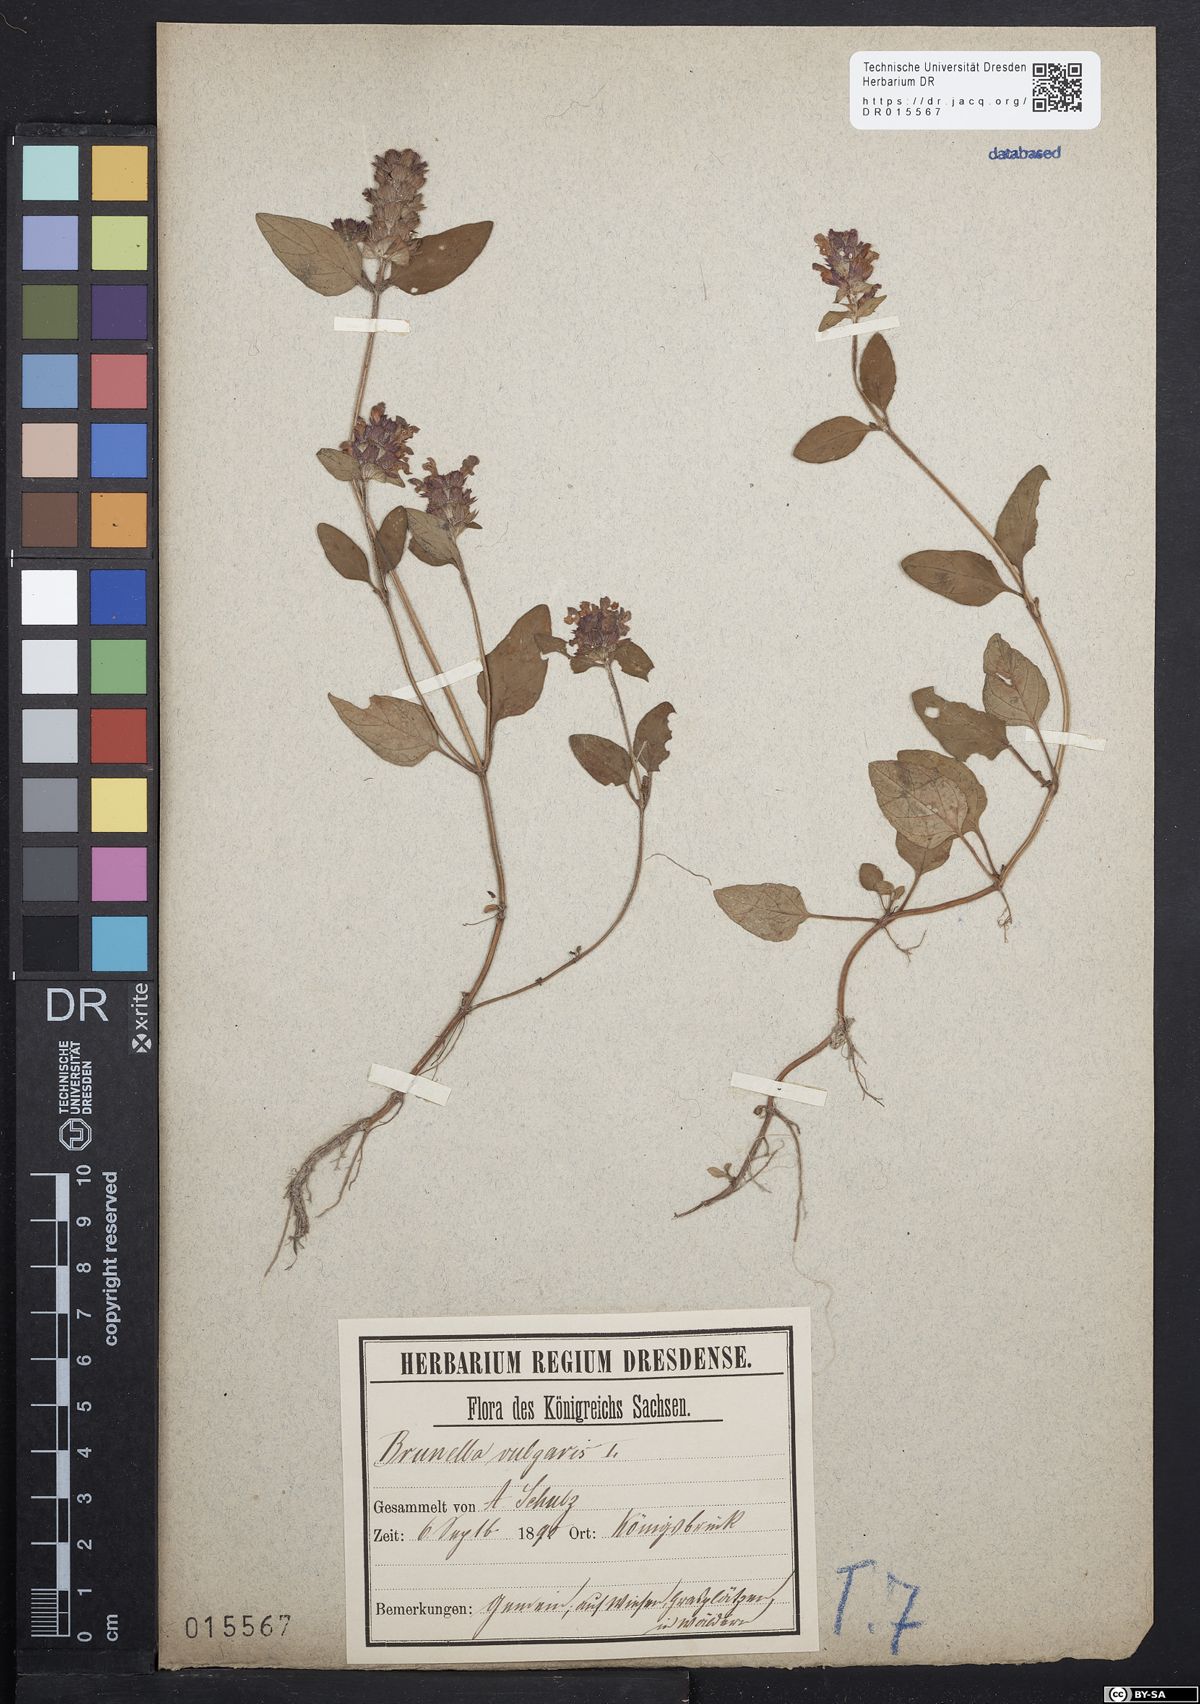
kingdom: Plantae
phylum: Tracheophyta
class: Magnoliopsida
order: Lamiales
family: Lamiaceae
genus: Prunella
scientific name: Prunella vulgaris
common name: Heal-all
